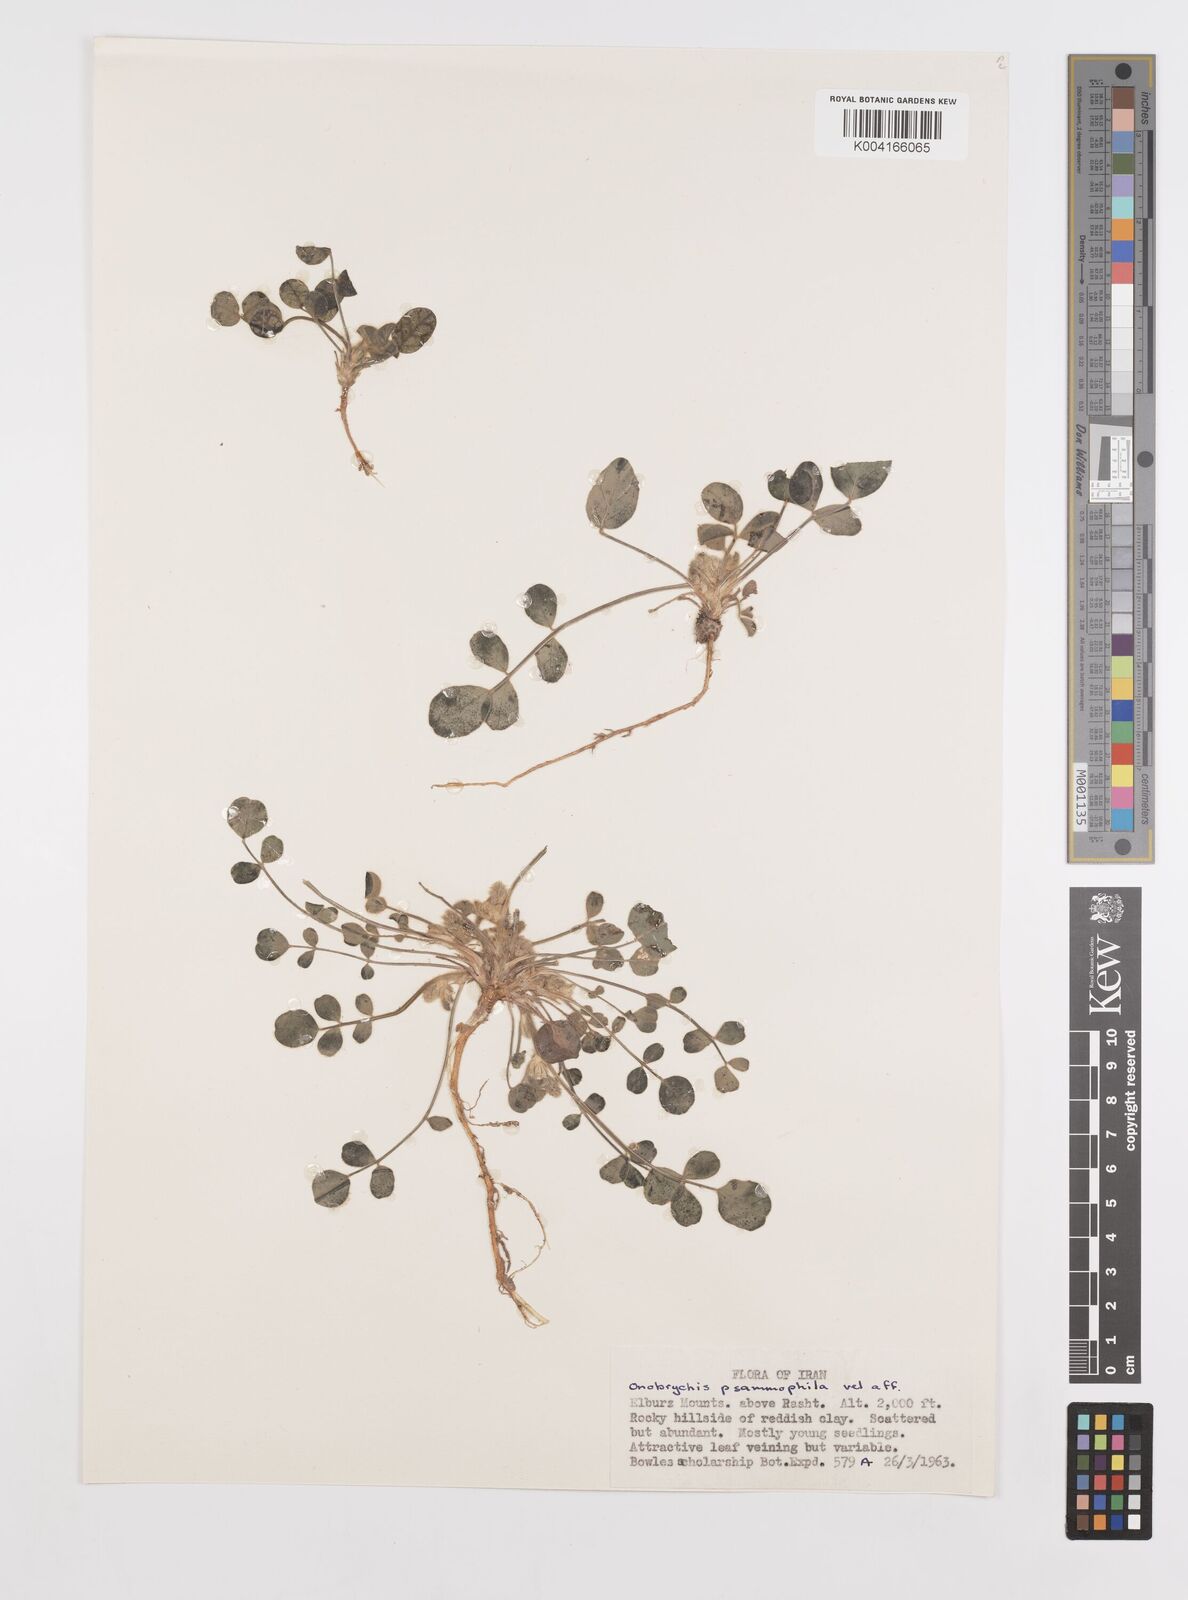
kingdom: Plantae
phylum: Tracheophyta
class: Magnoliopsida
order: Fabales
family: Fabaceae
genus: Onobrychis
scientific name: Onobrychis aucheri
